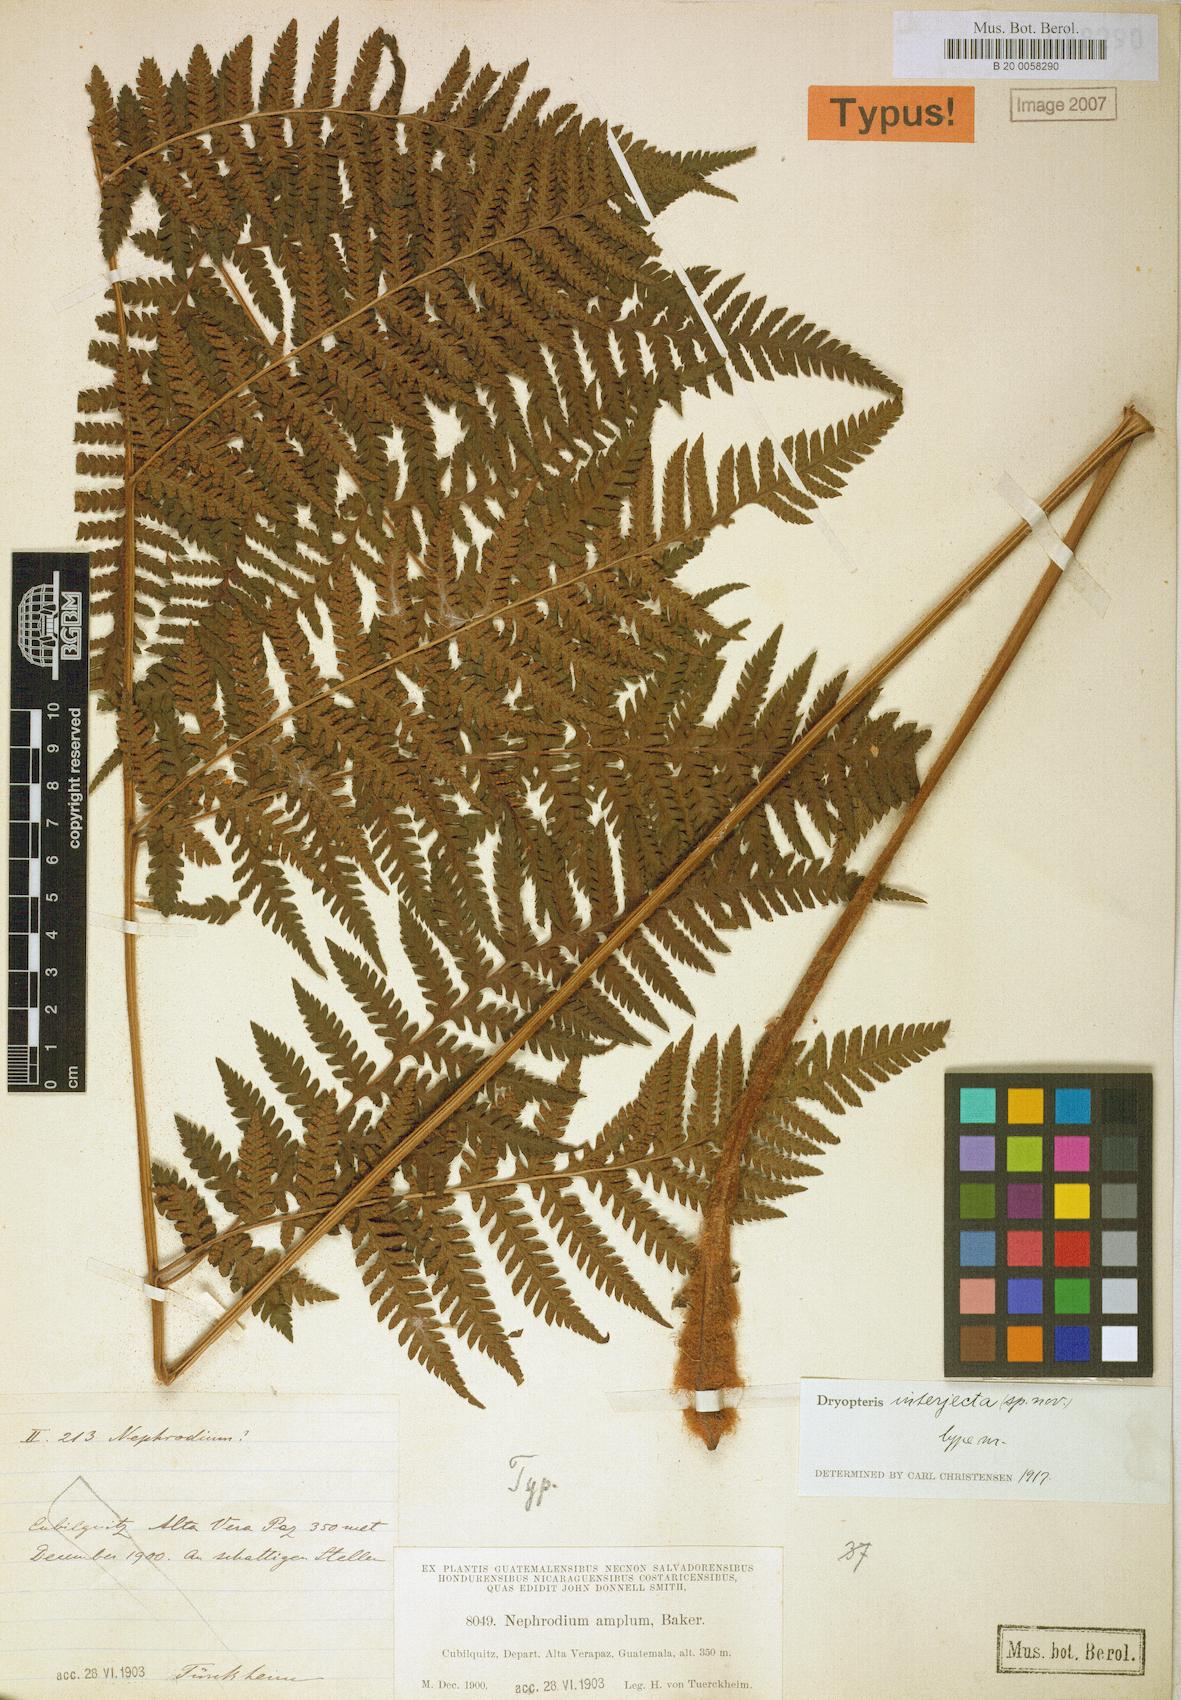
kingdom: Plantae
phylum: Tracheophyta
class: Polypodiopsida
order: Polypodiales
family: Dryopteridaceae
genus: Ctenitis
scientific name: Ctenitis interjecta
